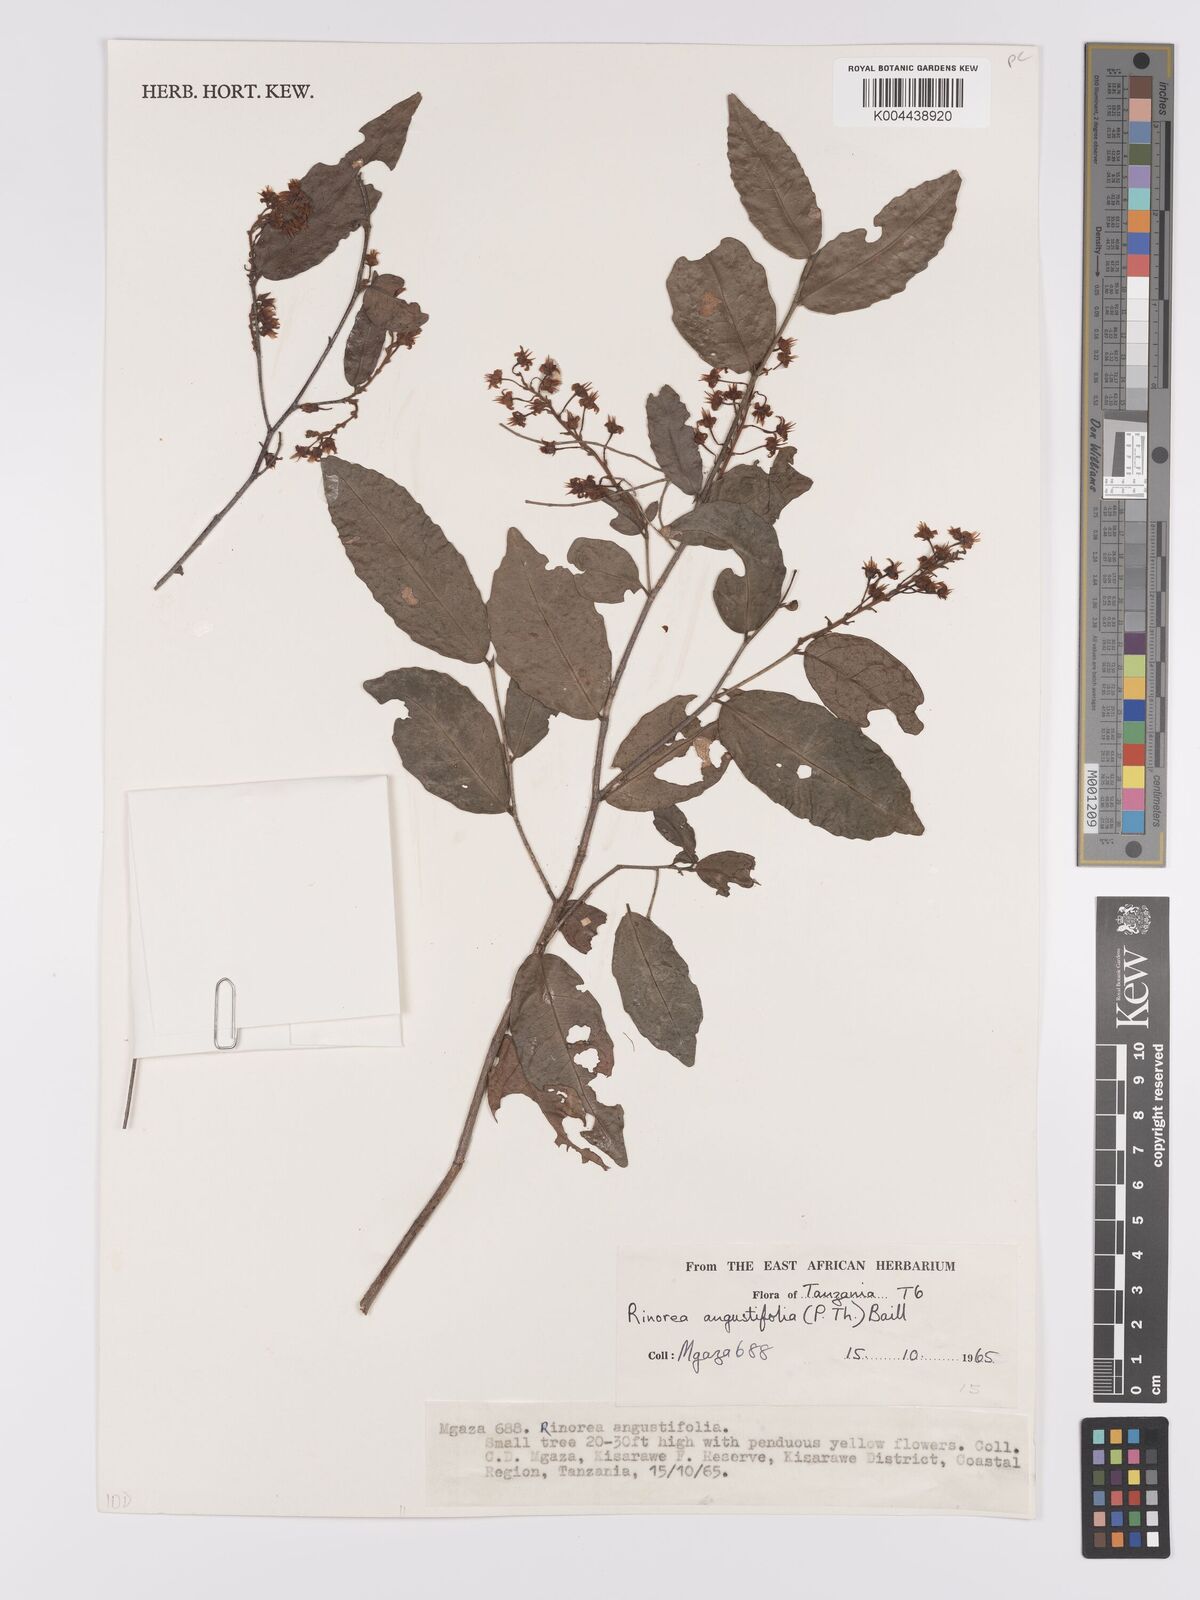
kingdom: Plantae
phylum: Tracheophyta
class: Magnoliopsida
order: Malpighiales
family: Violaceae
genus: Rinorea
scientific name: Rinorea angustifolia
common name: White violet-bush
